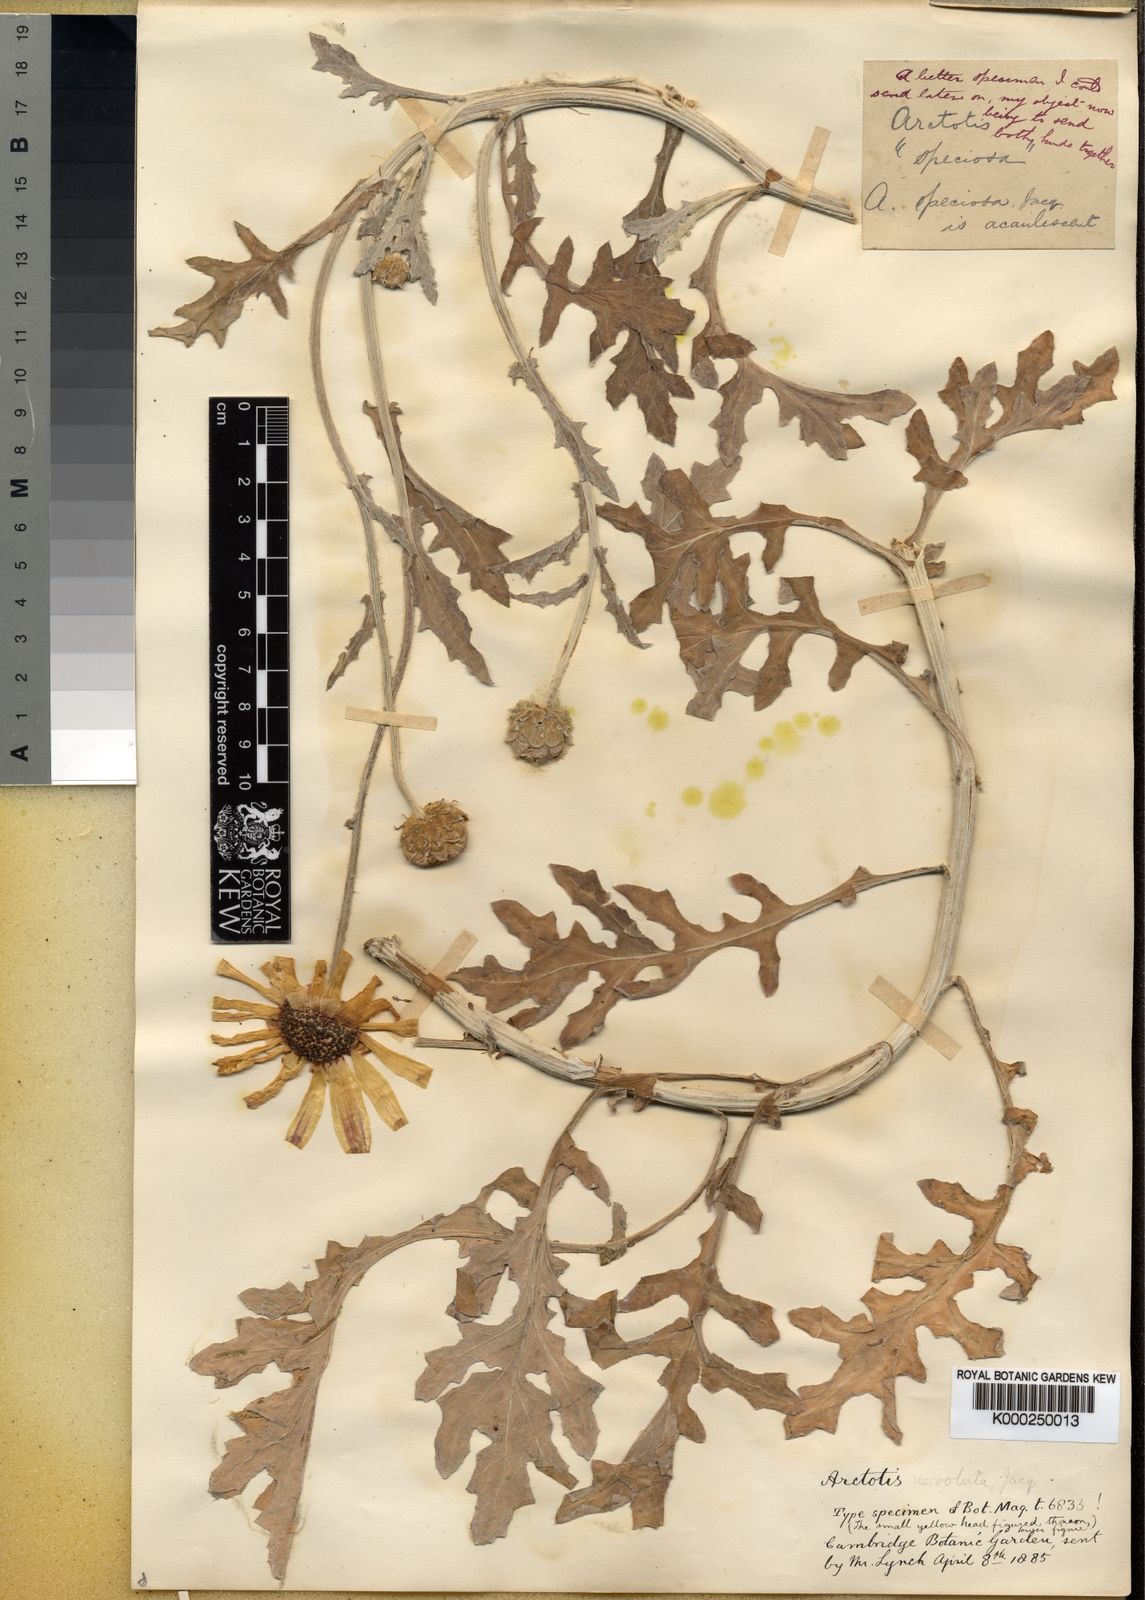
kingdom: Plantae
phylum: Tracheophyta
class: Magnoliopsida
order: Asterales
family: Asteraceae
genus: Arctotis
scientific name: Arctotis revoluta
